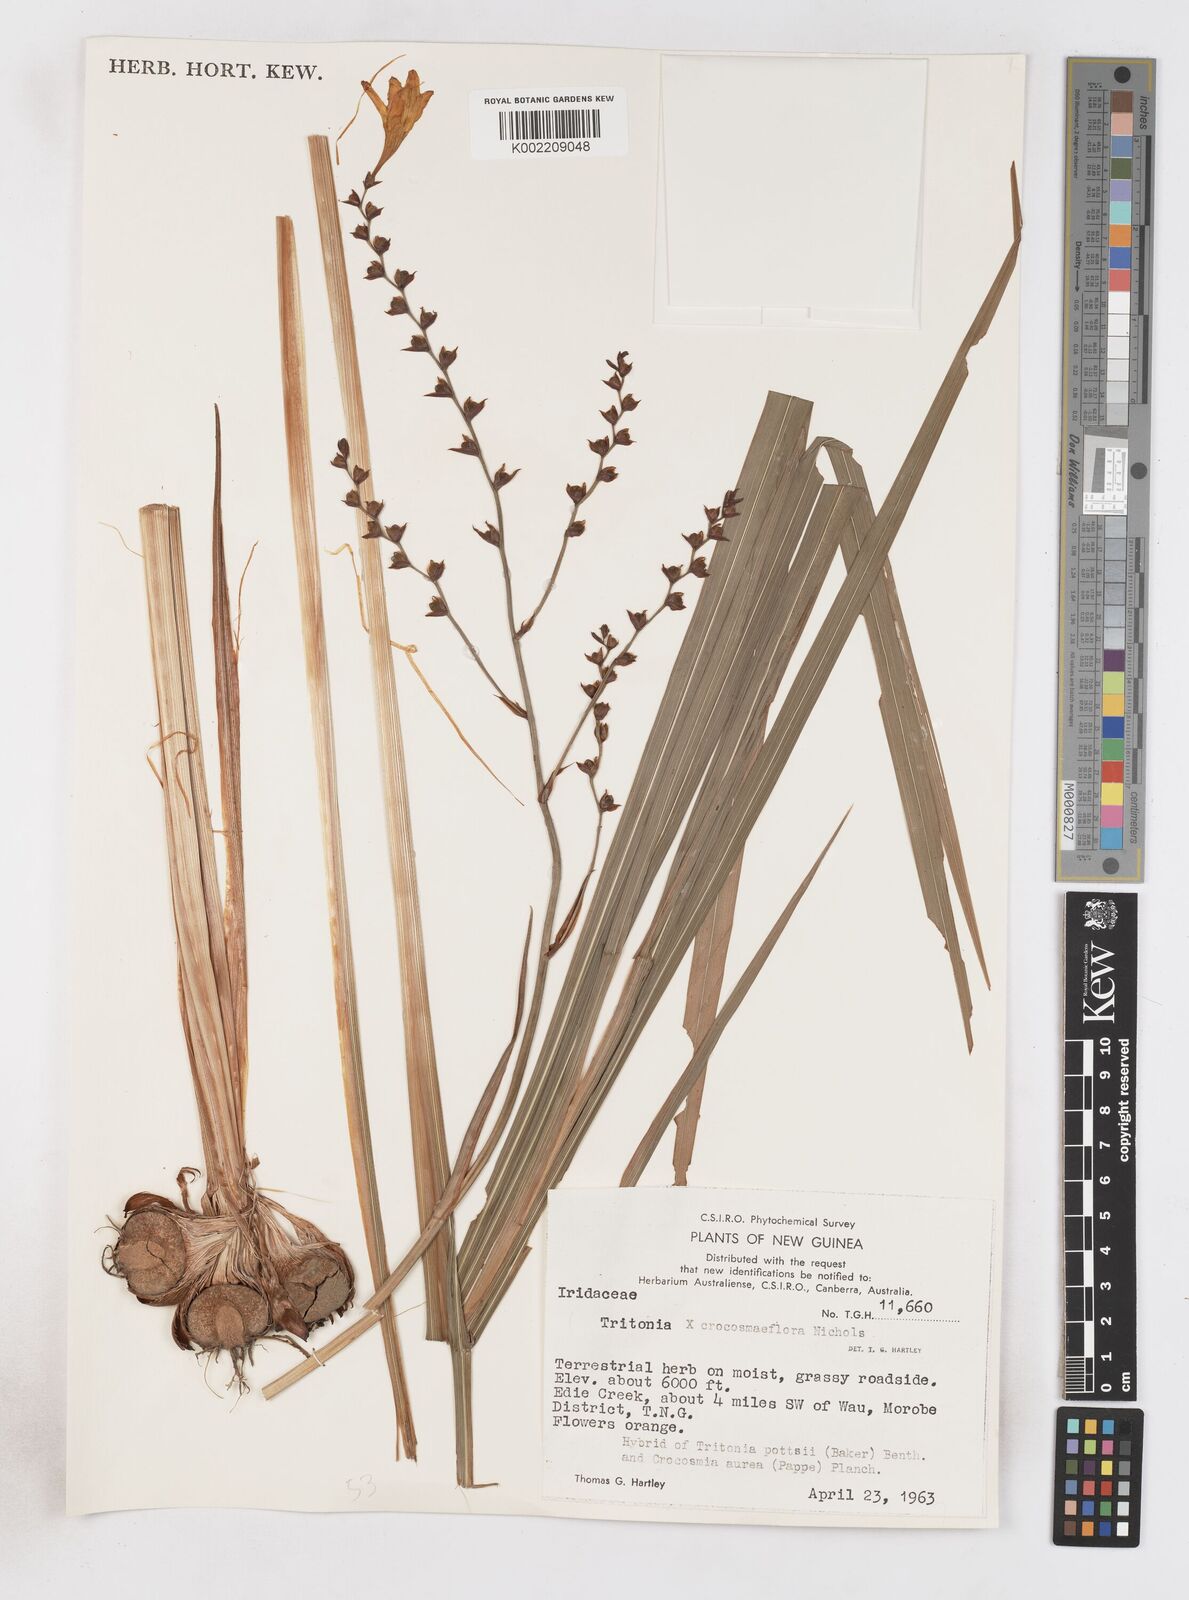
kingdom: Plantae
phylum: Tracheophyta
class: Liliopsida
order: Asparagales
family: Iridaceae
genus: Crocosmia
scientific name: Crocosmia crocosmiiflora
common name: Montbretia
